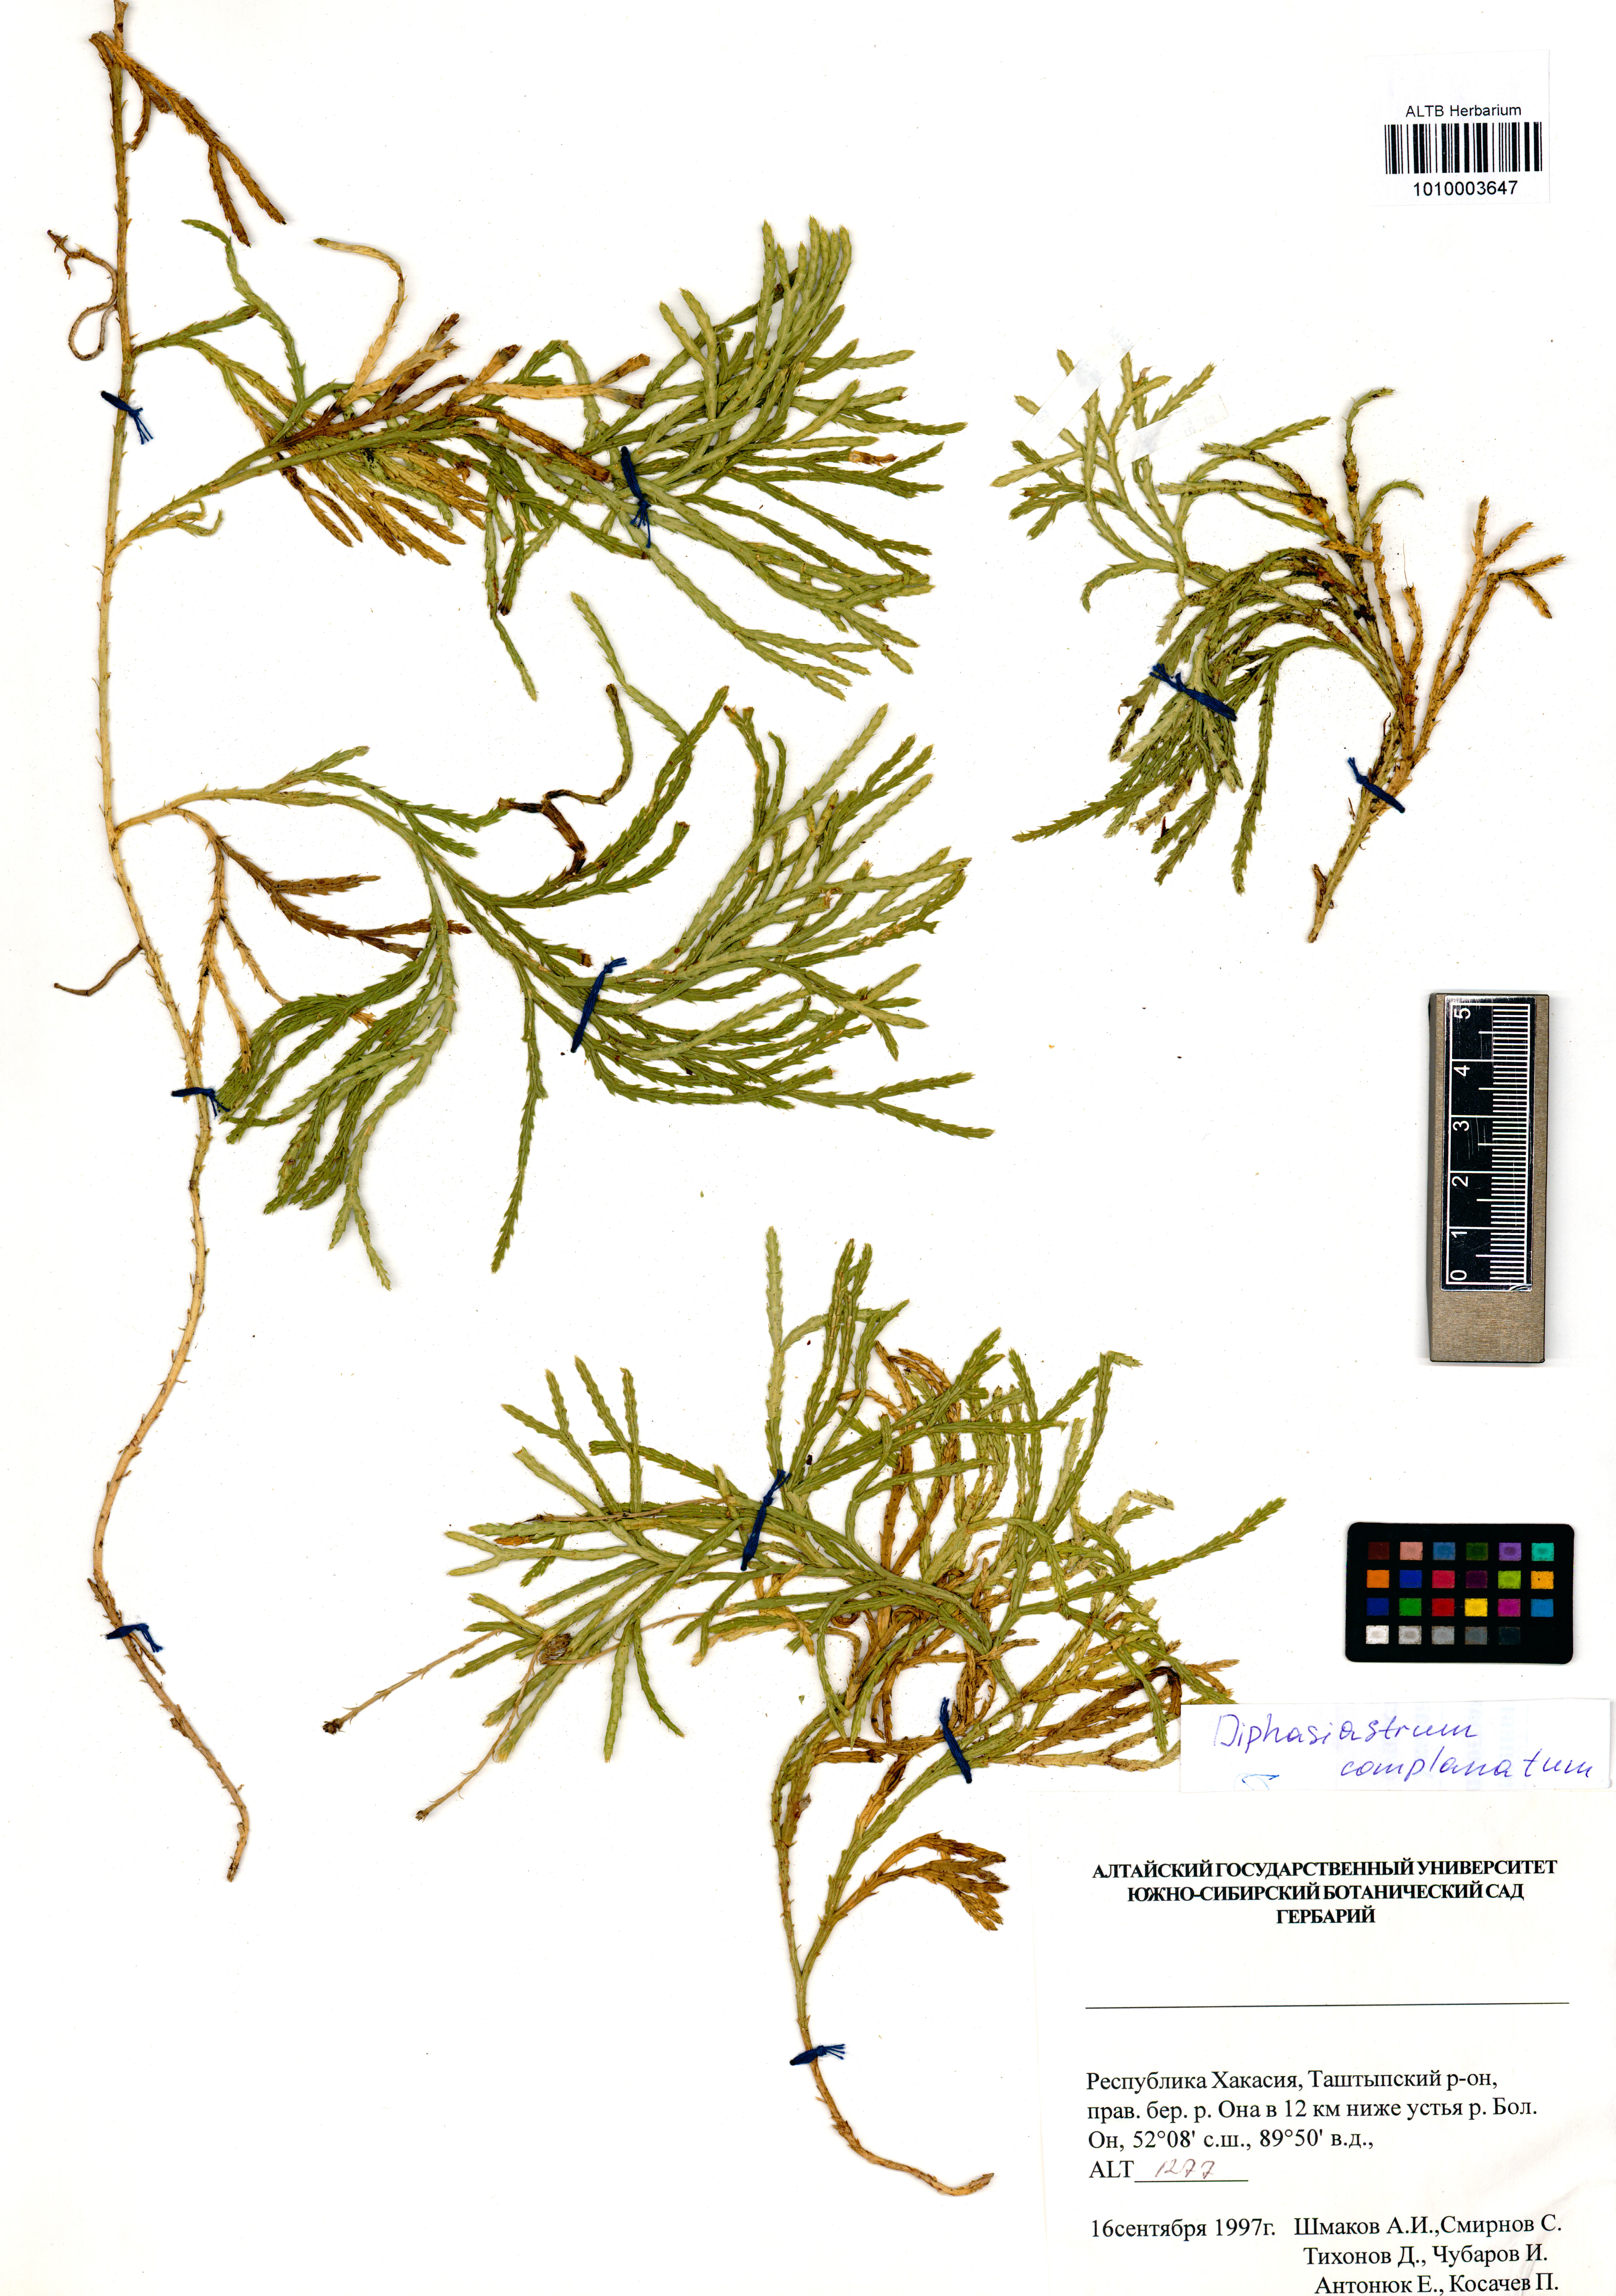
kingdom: Plantae
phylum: Tracheophyta
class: Lycopodiopsida
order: Lycopodiales
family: Lycopodiaceae
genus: Diphasiastrum
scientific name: Diphasiastrum complanatum
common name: Northern running-pine
